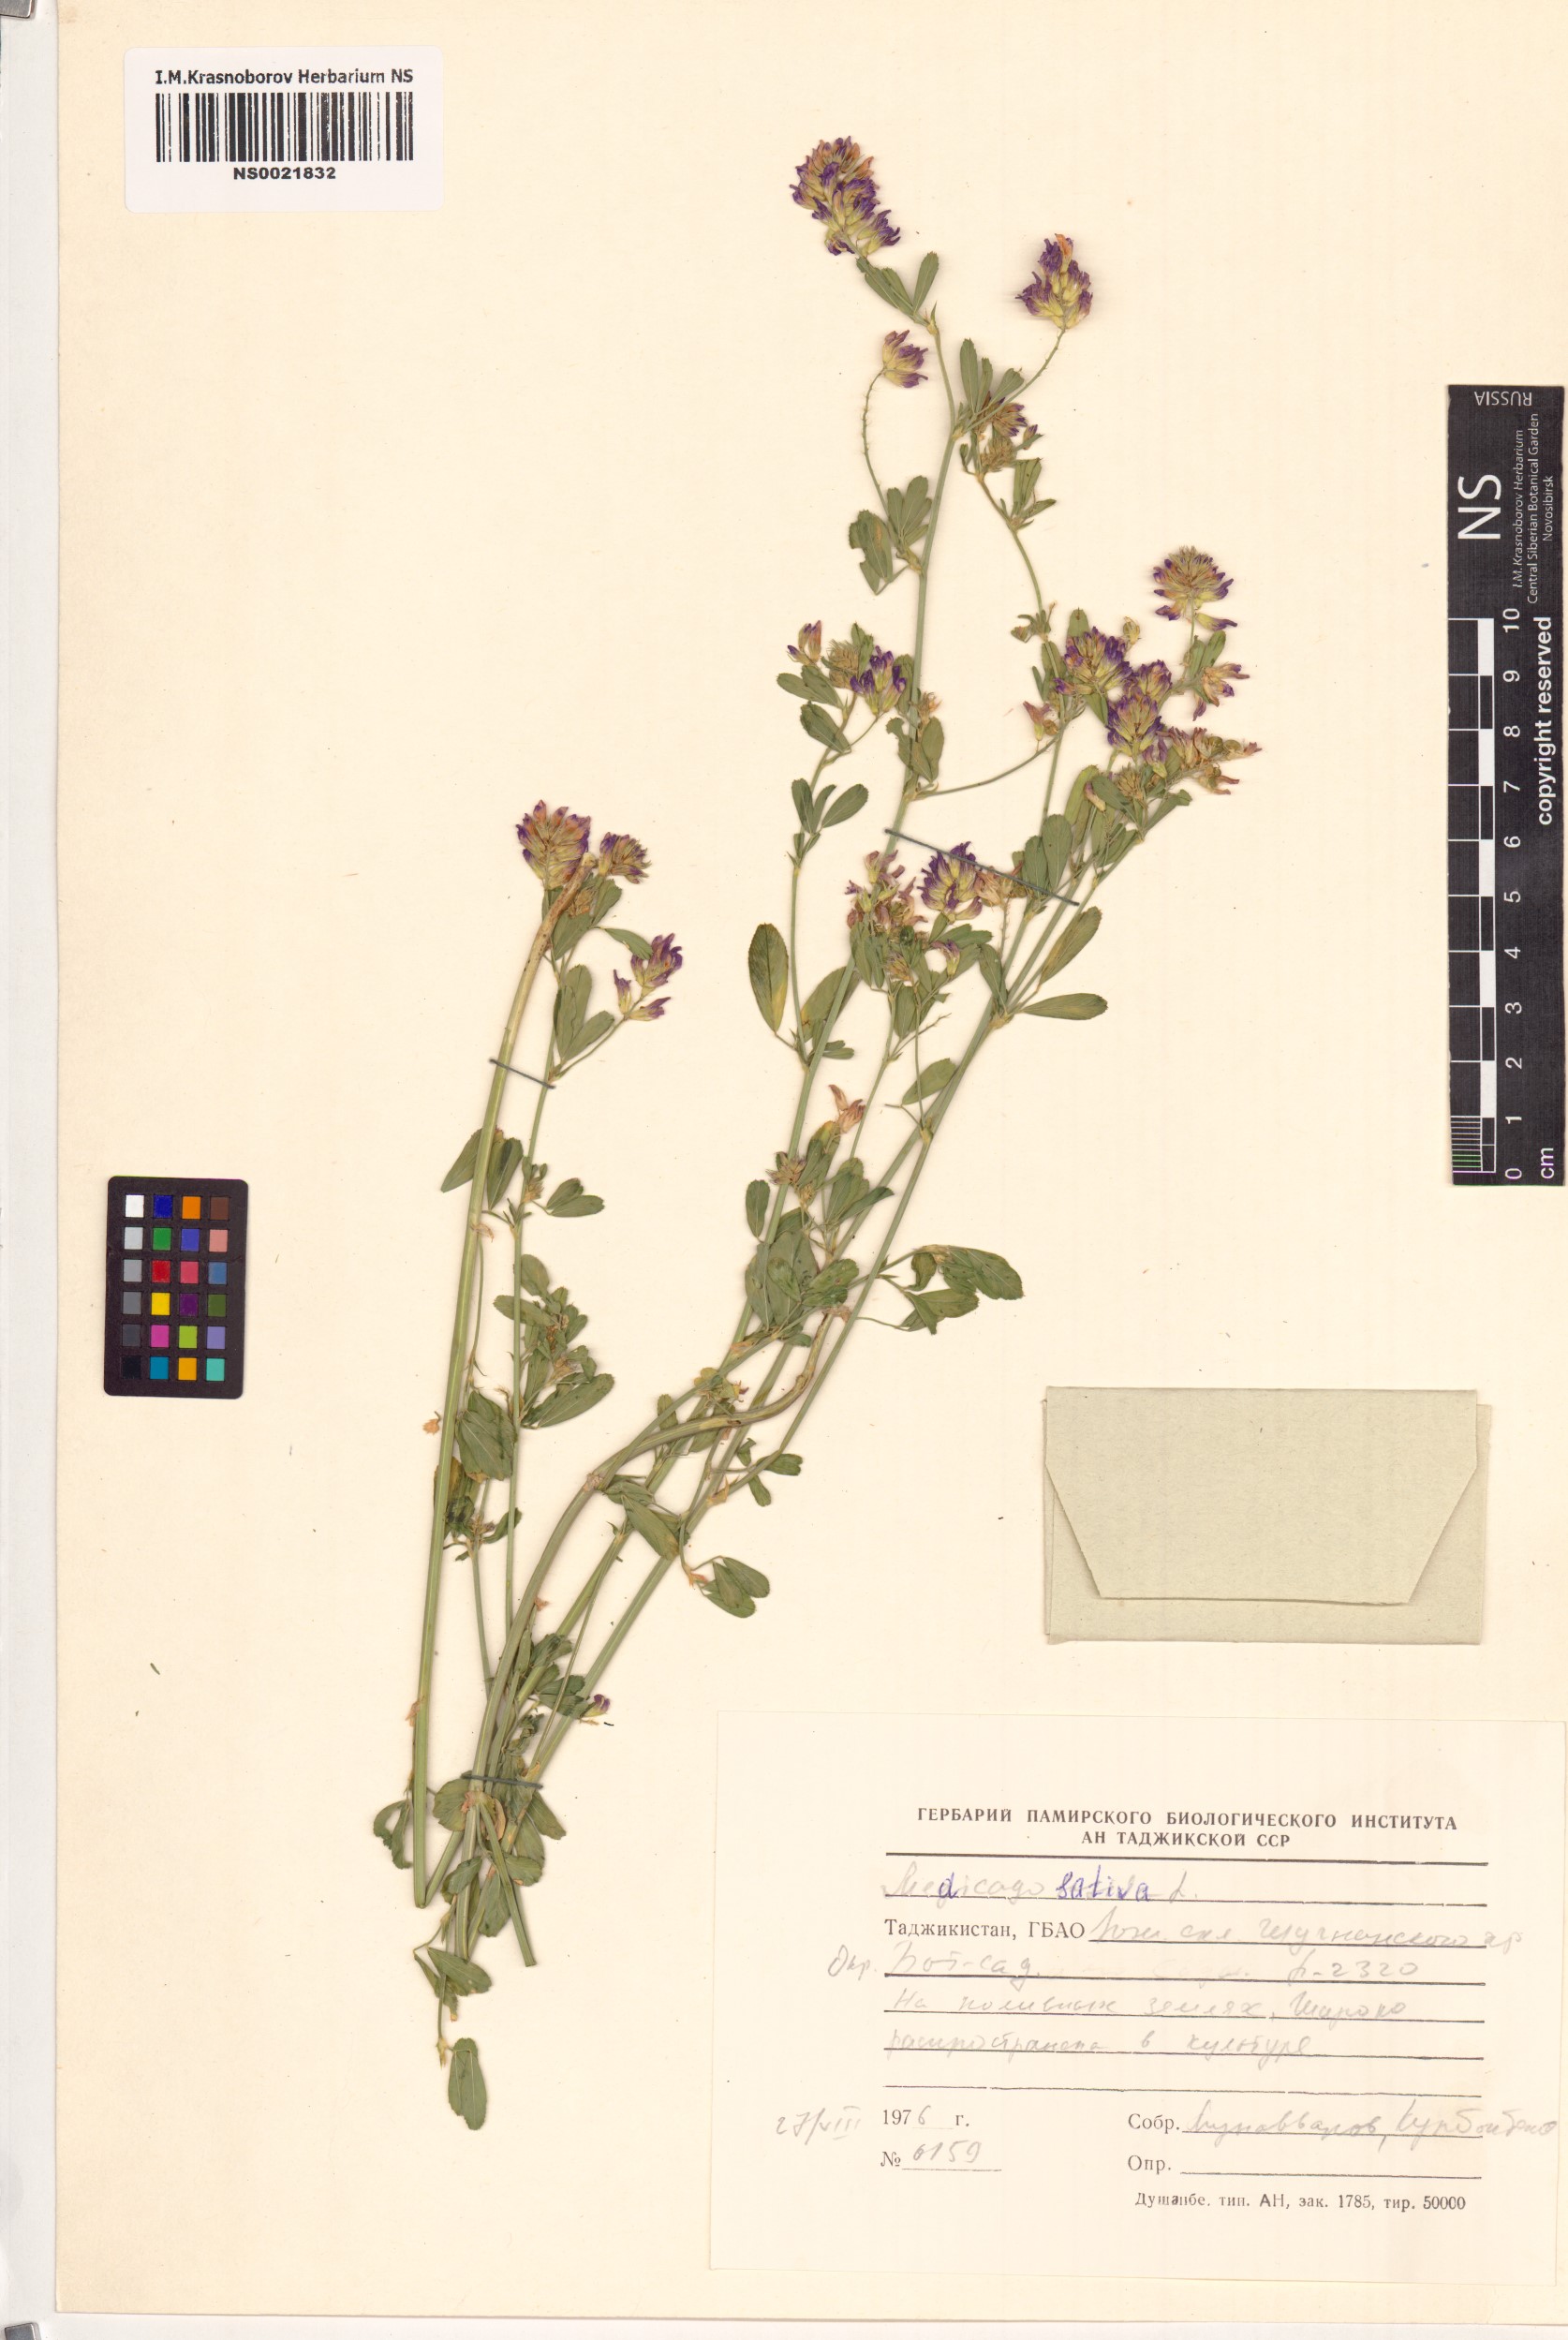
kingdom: Plantae
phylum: Tracheophyta
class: Magnoliopsida
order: Fabales
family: Fabaceae
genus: Medicago
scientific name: Medicago sativa
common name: Alfalfa
